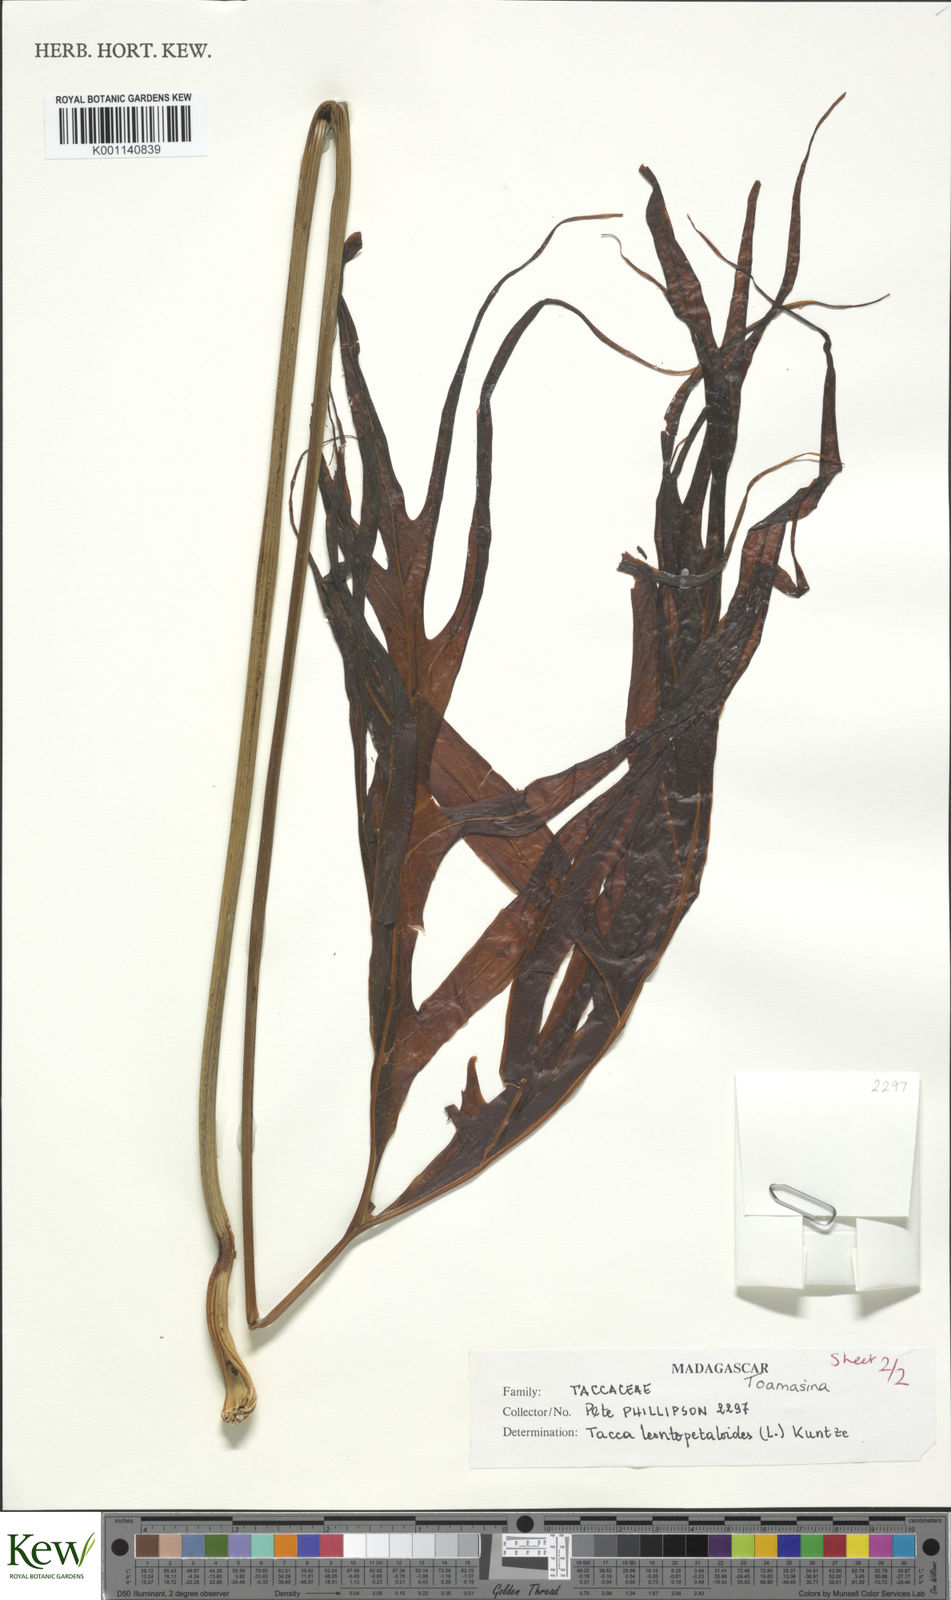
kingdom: Plantae
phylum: Tracheophyta
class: Liliopsida
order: Dioscoreales
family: Dioscoreaceae
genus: Tacca
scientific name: Tacca leontopetaloides
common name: Arrowroot
